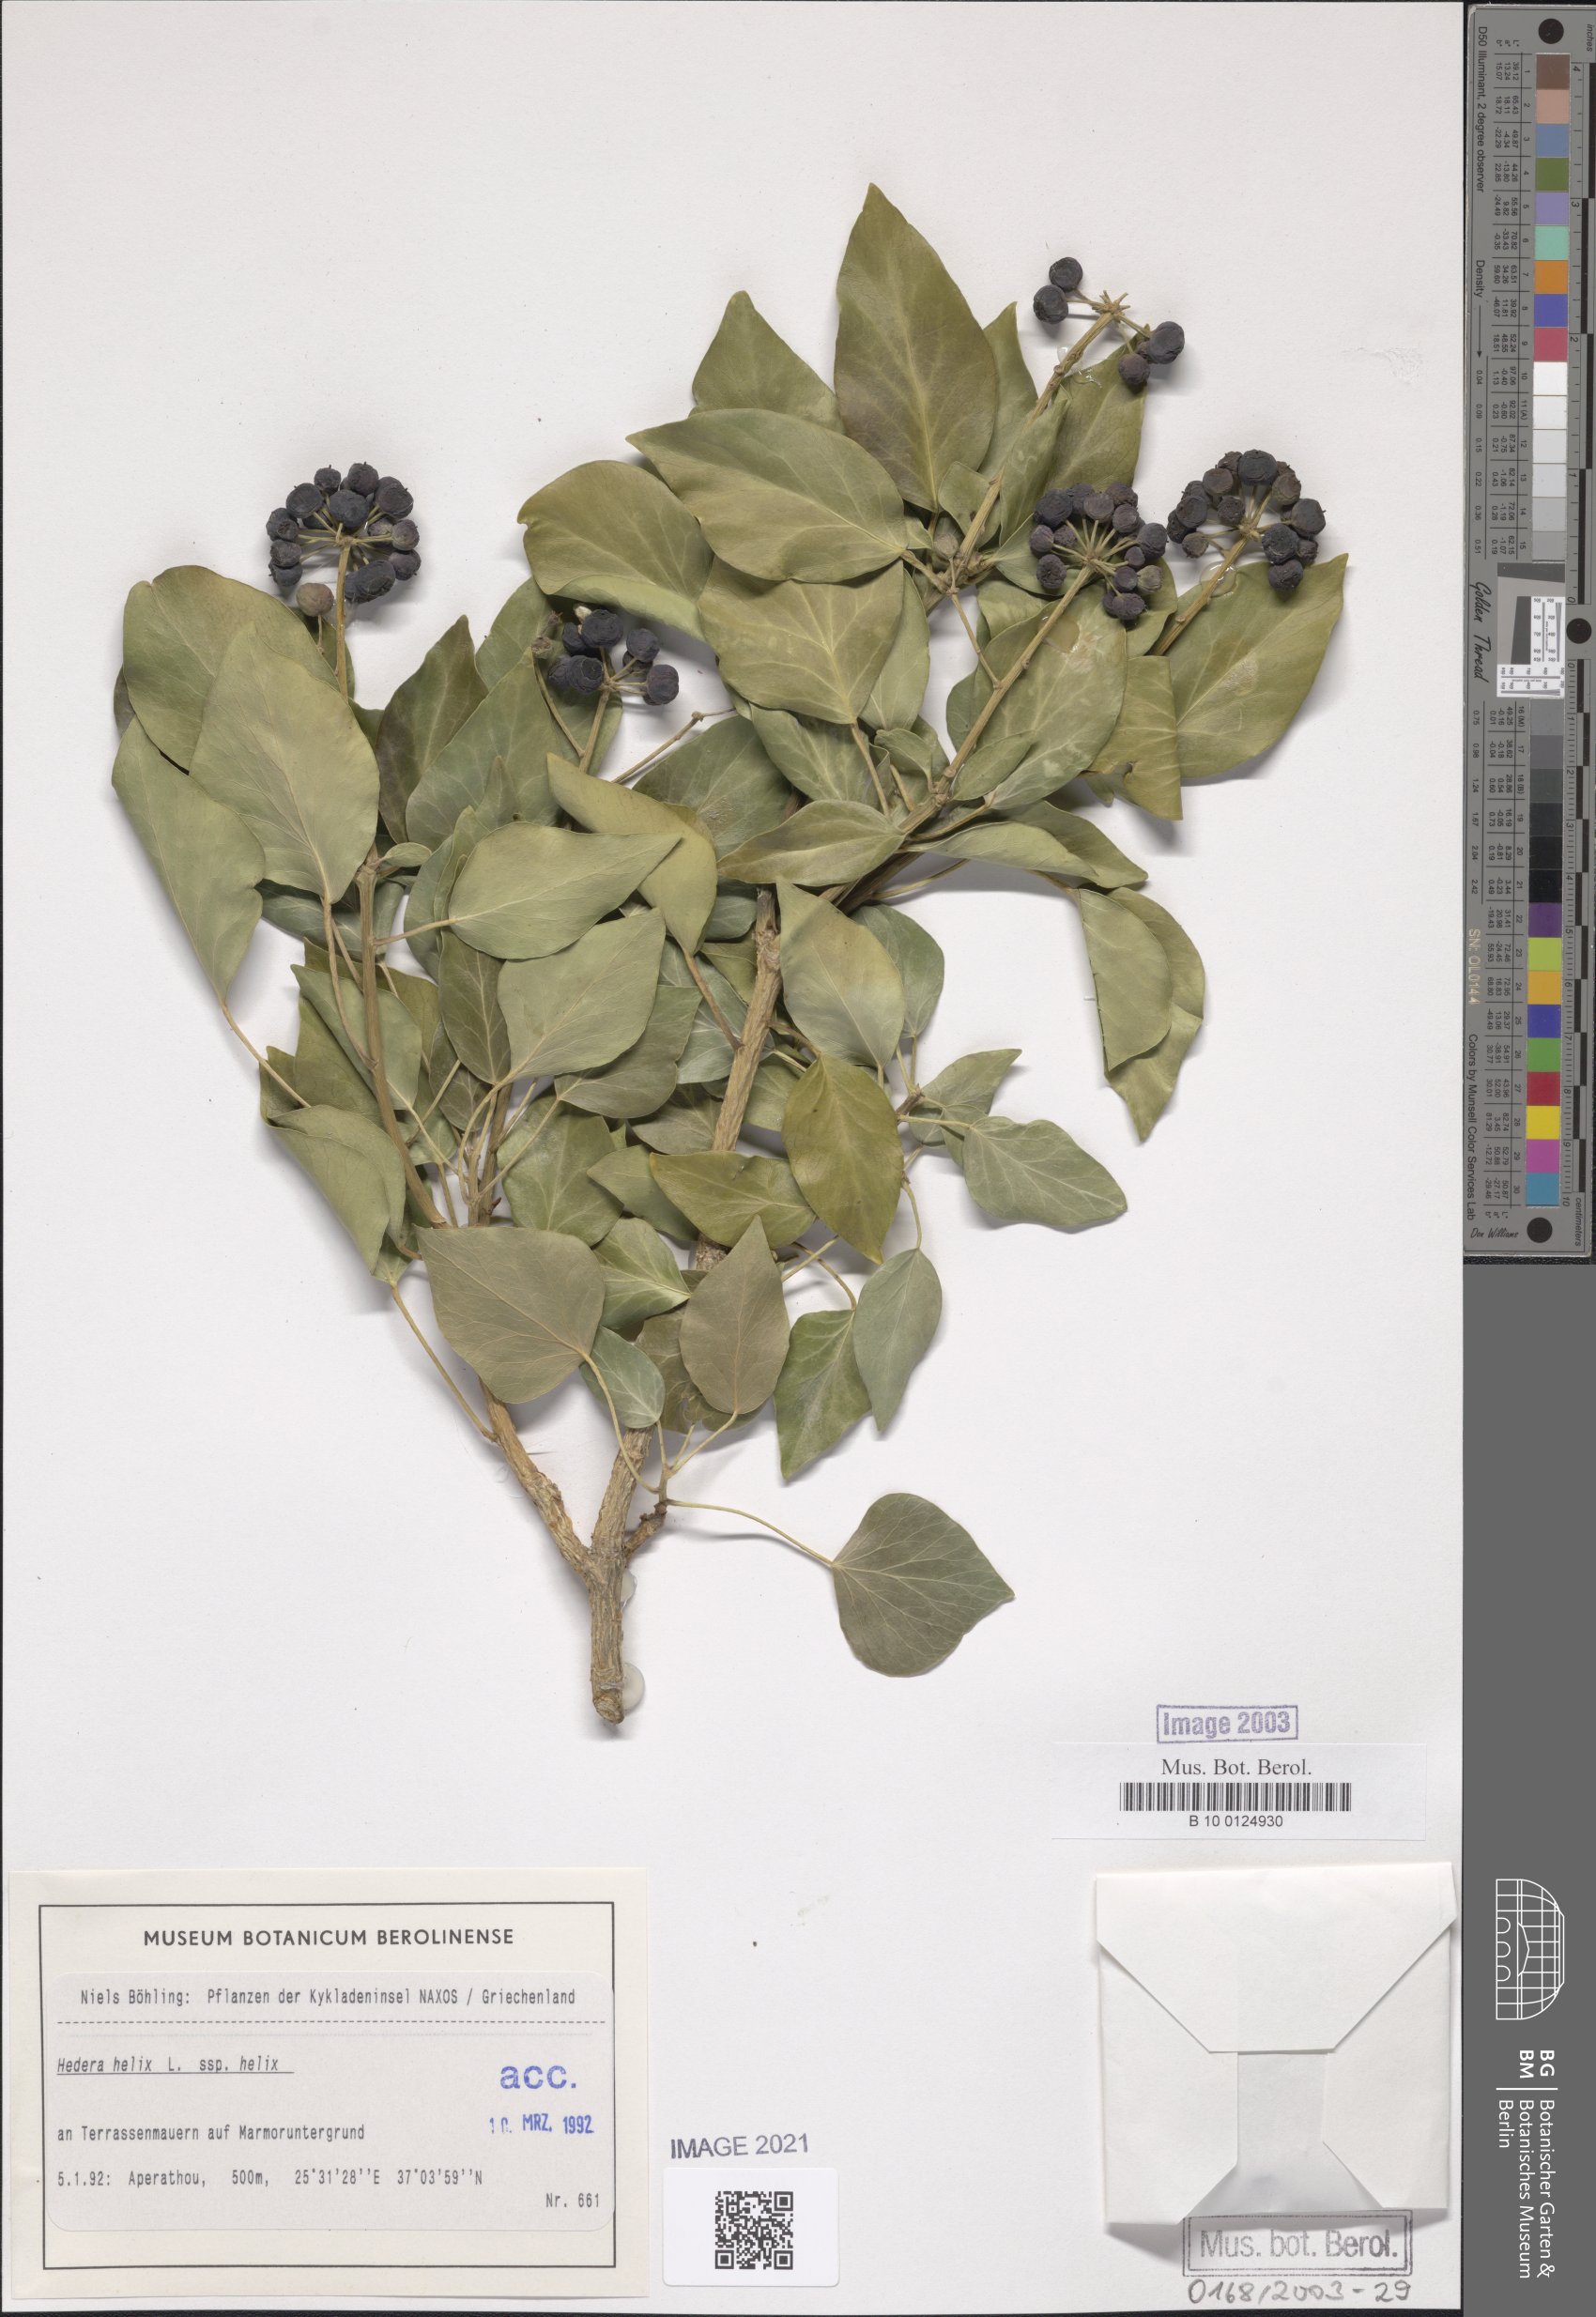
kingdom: Plantae
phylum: Tracheophyta
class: Magnoliopsida
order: Apiales
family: Araliaceae
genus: Hedera
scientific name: Hedera helix
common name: Ivy
